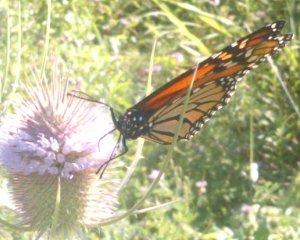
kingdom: Animalia
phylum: Arthropoda
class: Insecta
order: Lepidoptera
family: Nymphalidae
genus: Danaus
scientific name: Danaus plexippus
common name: Monarch
